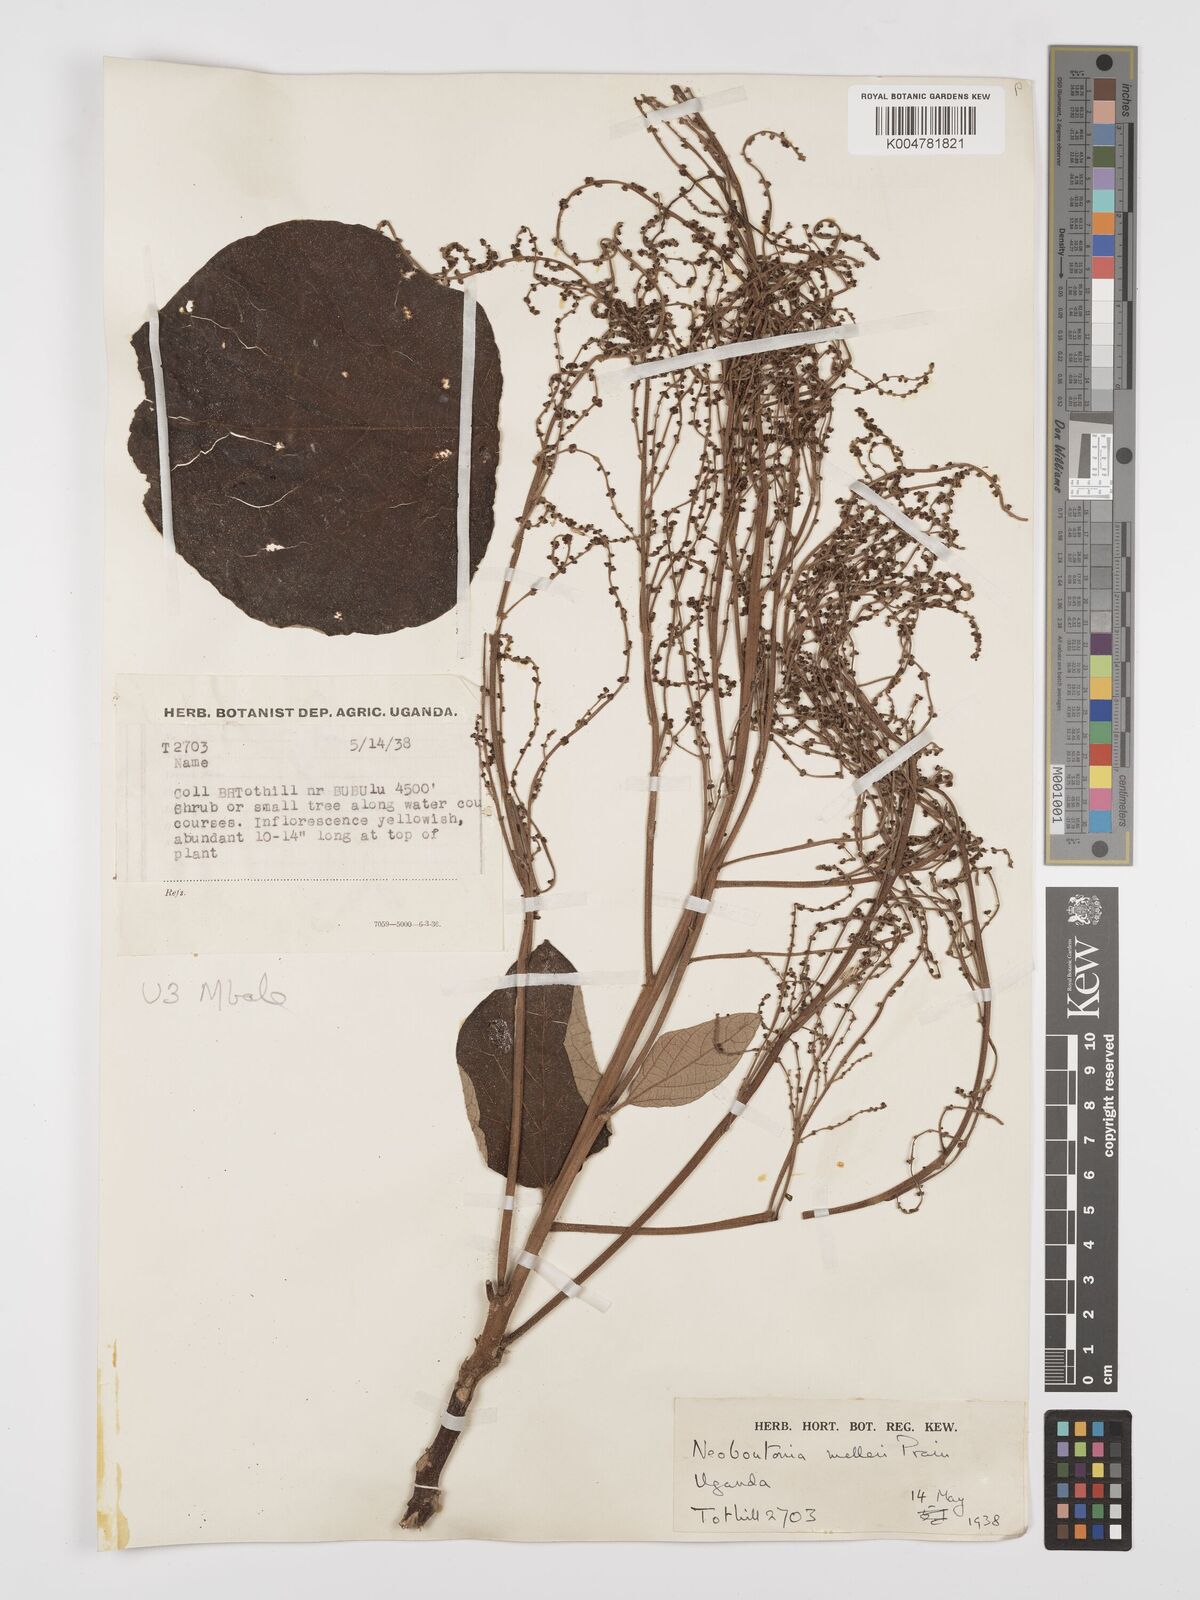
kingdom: Plantae
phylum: Tracheophyta
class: Magnoliopsida
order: Malpighiales
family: Euphorbiaceae
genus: Neoboutonia
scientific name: Neoboutonia melleri
